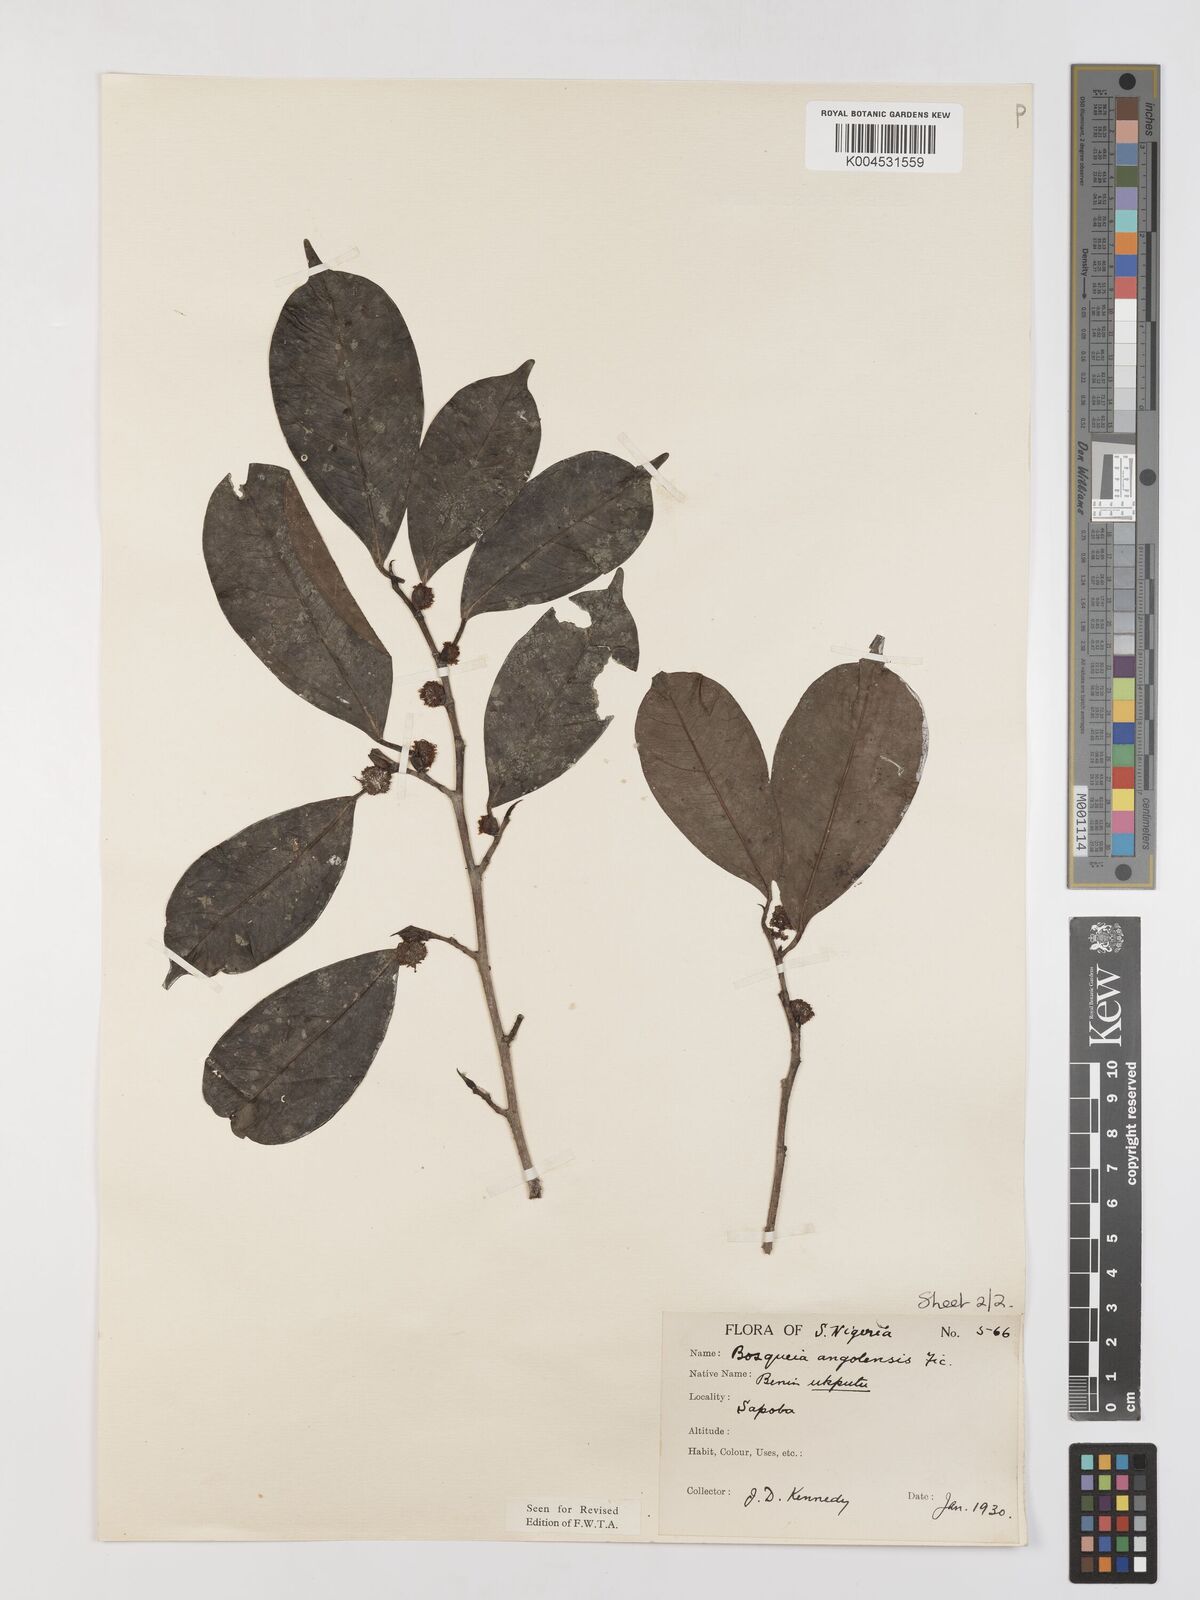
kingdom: Plantae
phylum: Tracheophyta
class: Magnoliopsida
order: Rosales
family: Moraceae
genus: Trilepisium
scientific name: Trilepisium madagascariense
